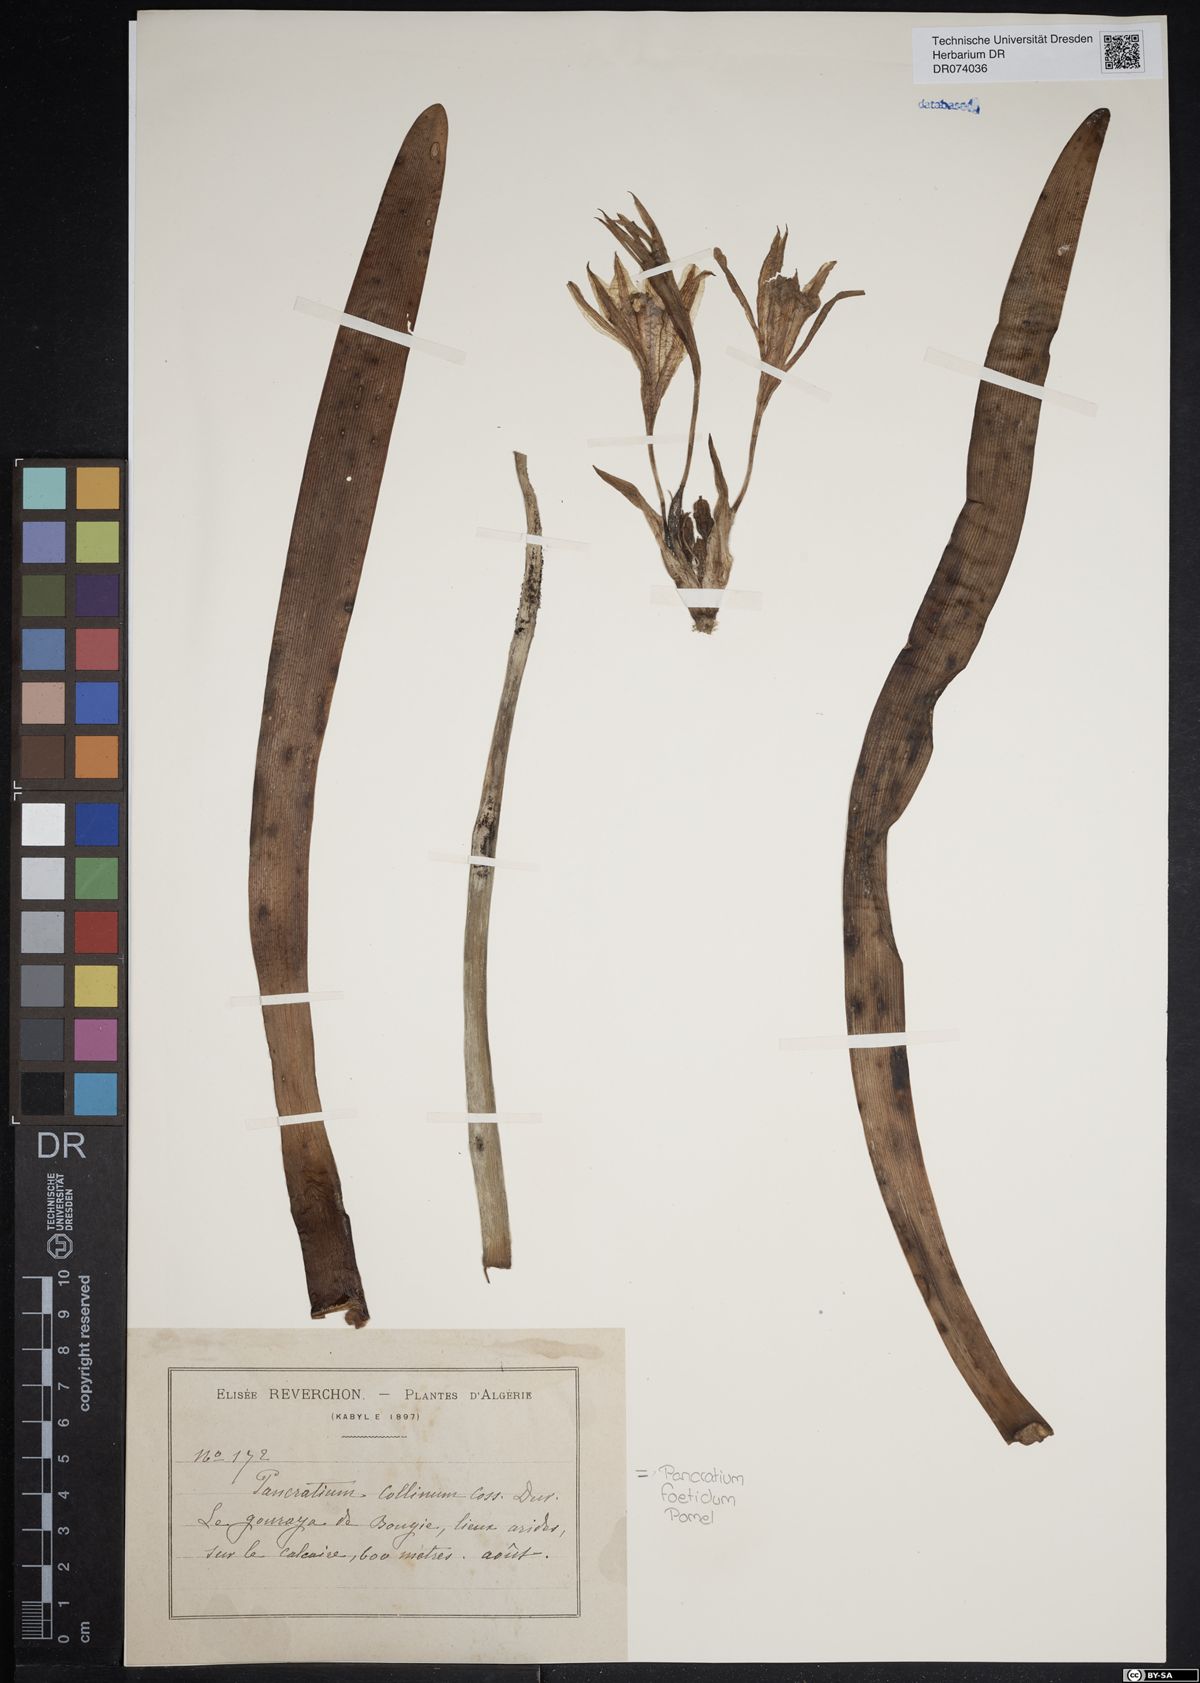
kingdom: Plantae
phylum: Tracheophyta
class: Liliopsida
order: Asparagales
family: Amaryllidaceae
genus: Pancratium
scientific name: Pancratium foetidum
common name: Stinking daffodil
